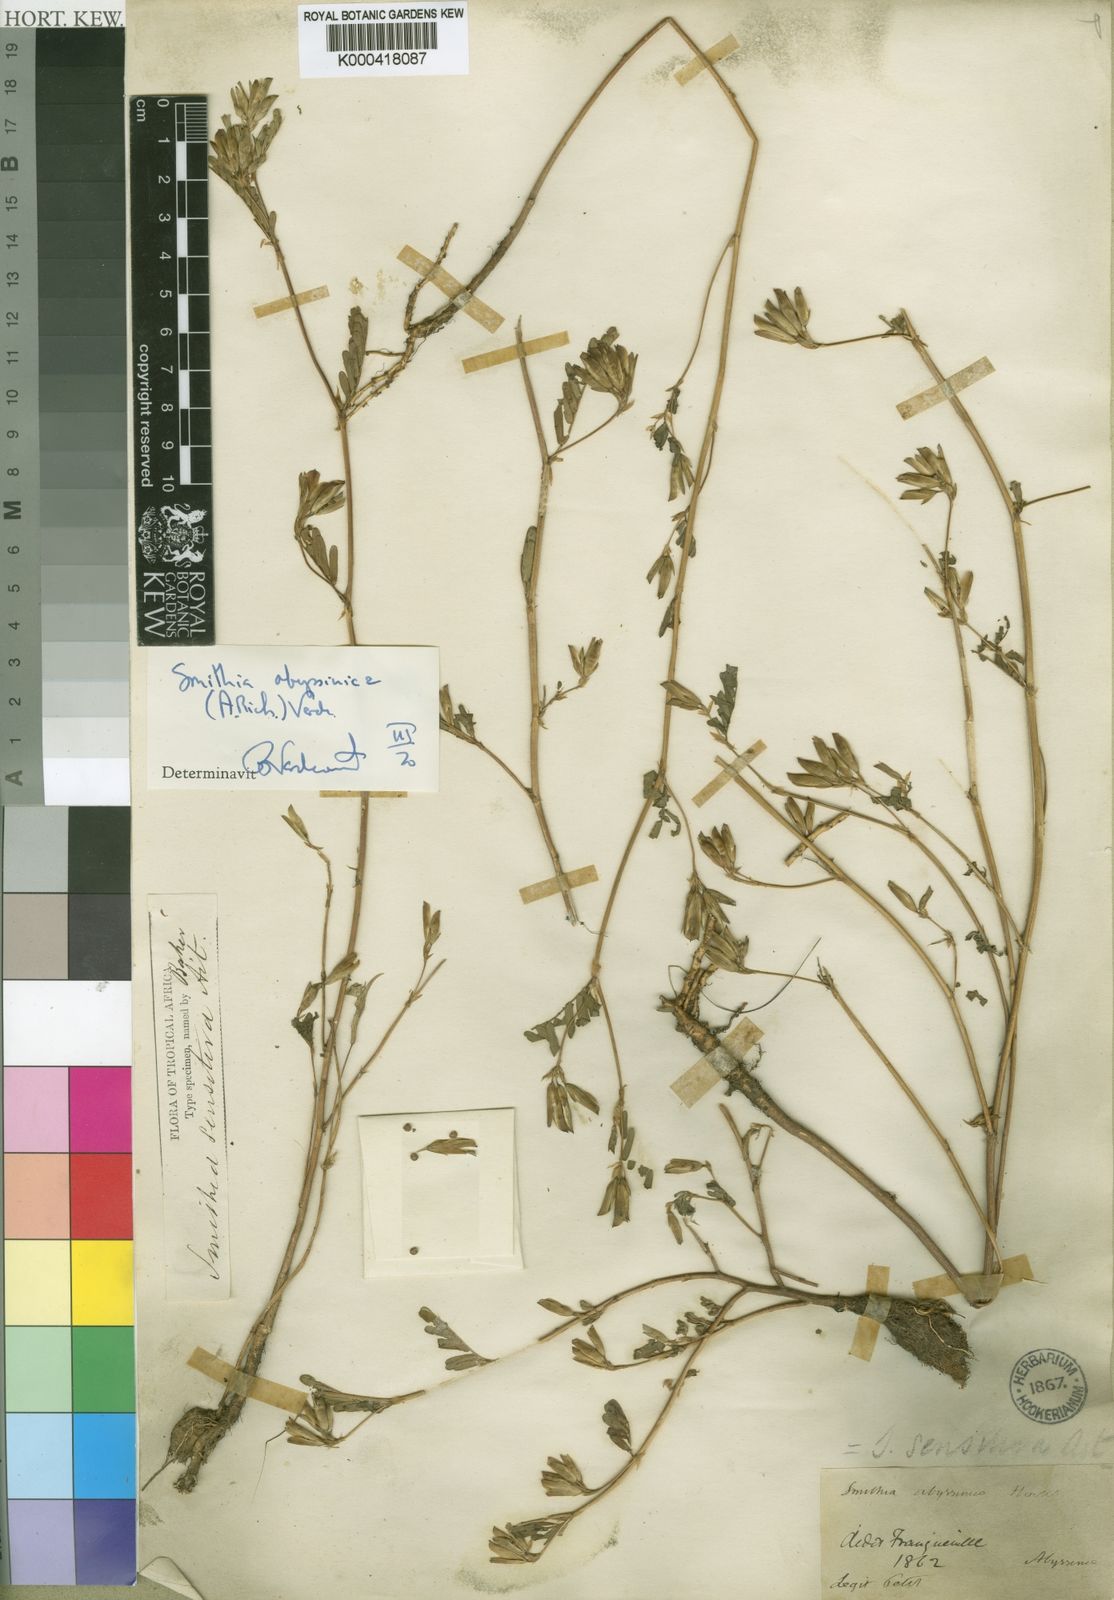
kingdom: Plantae
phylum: Tracheophyta
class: Magnoliopsida
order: Fabales
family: Fabaceae
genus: Smithia
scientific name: Smithia abyssinica
